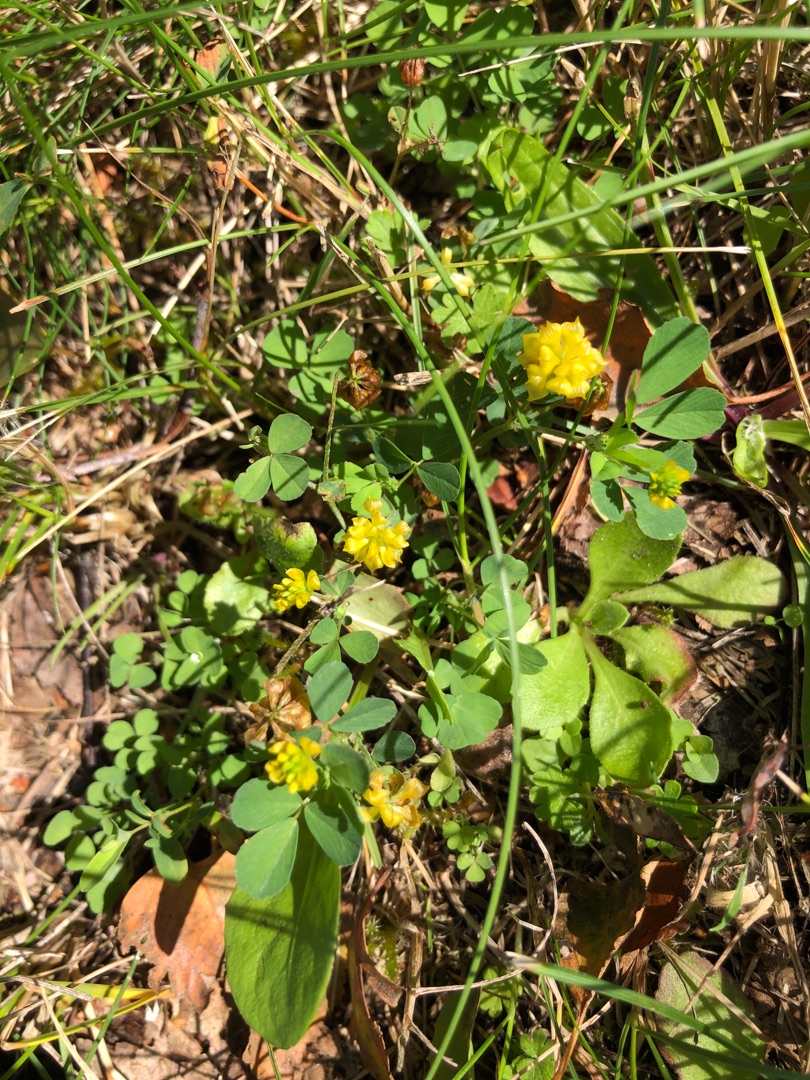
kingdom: Plantae
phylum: Tracheophyta
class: Magnoliopsida
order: Fabales
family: Fabaceae
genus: Trifolium
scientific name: Trifolium campestre
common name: Gul kløver
